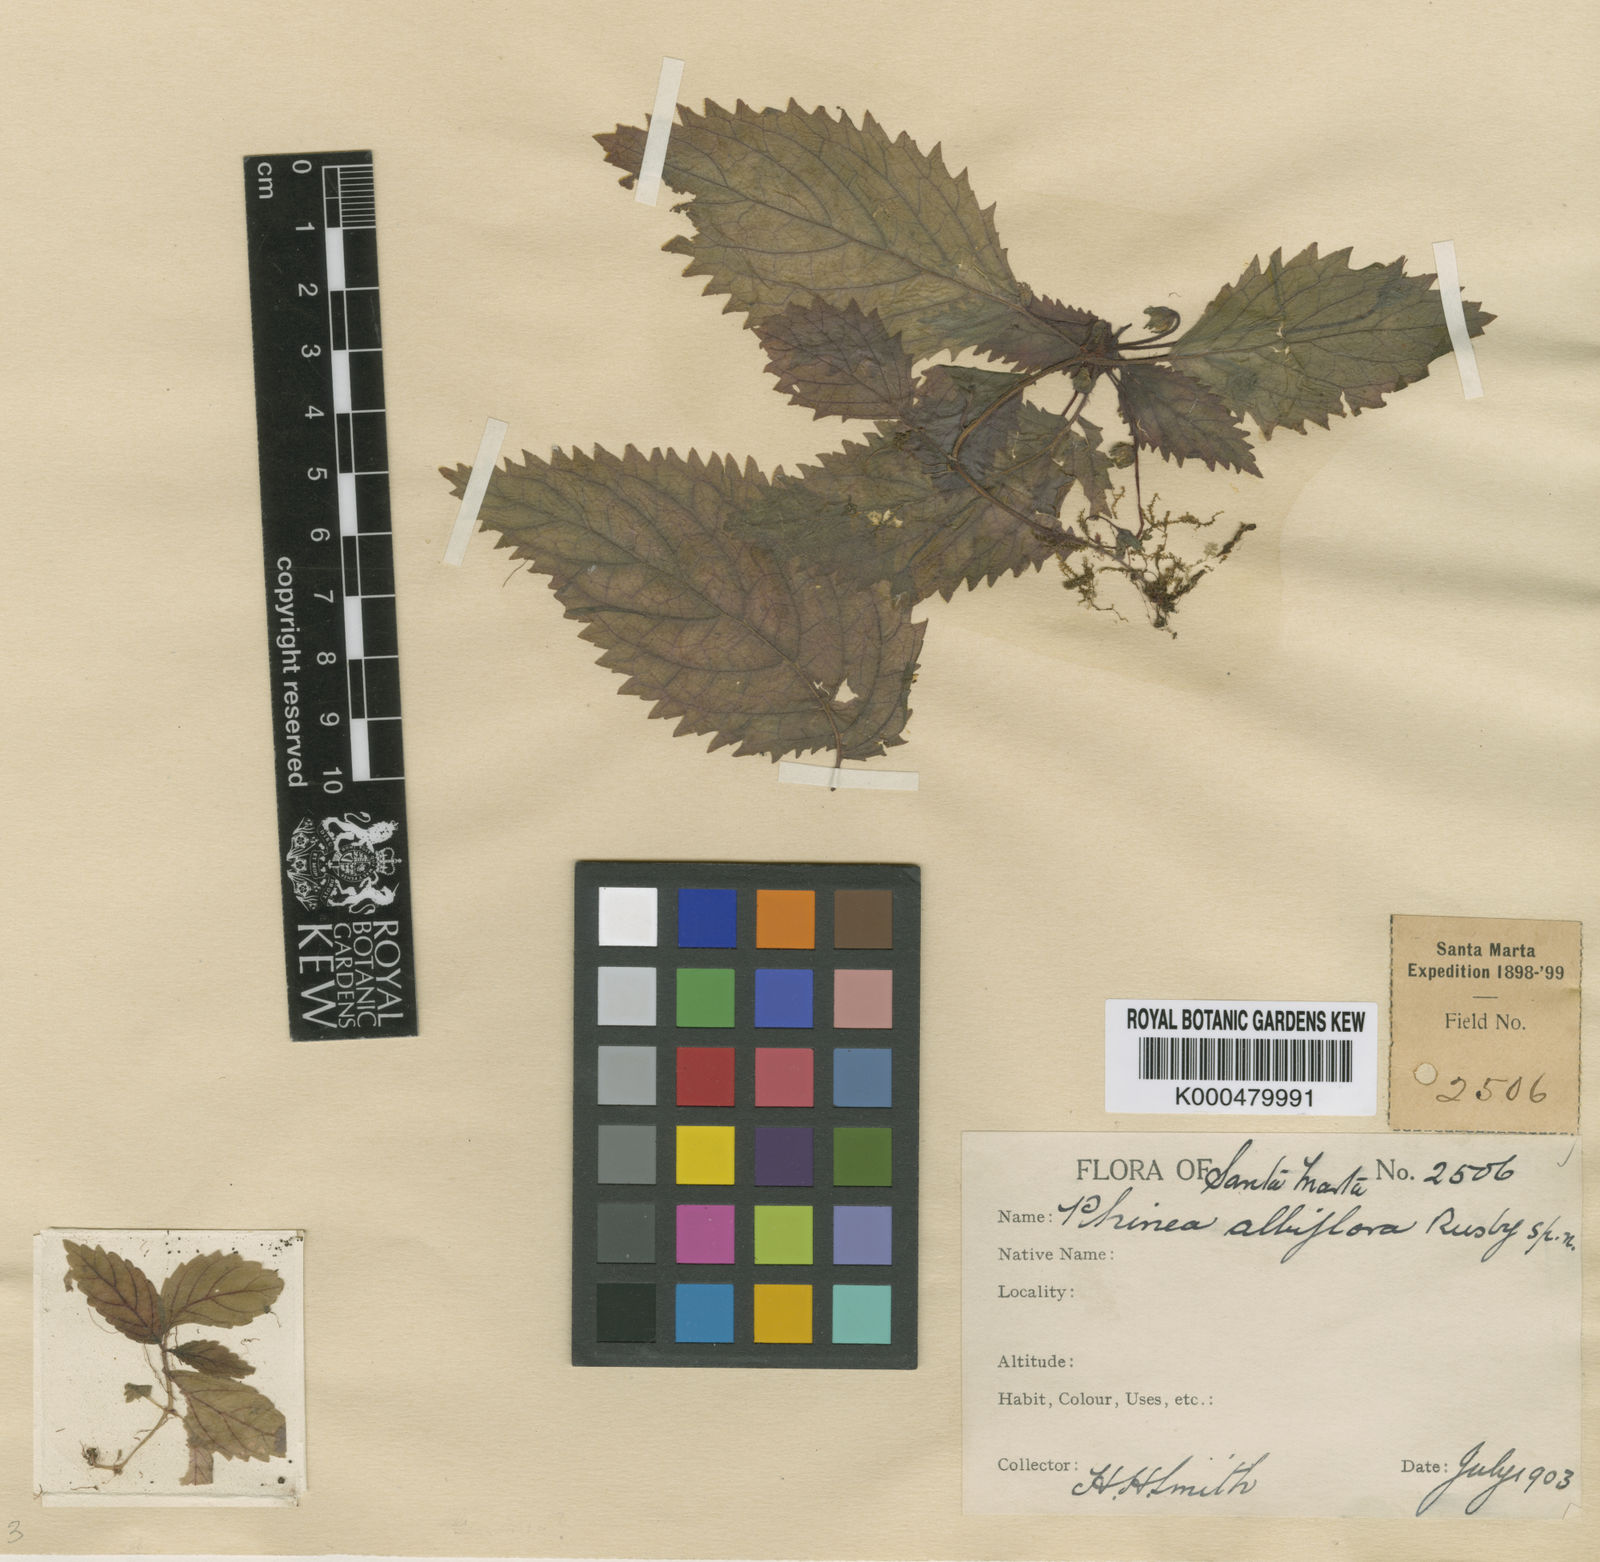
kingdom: Plantae
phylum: Tracheophyta
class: Magnoliopsida
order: Lamiales
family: Gesneriaceae
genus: Amalophyllon
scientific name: Amalophyllon albiflorum
